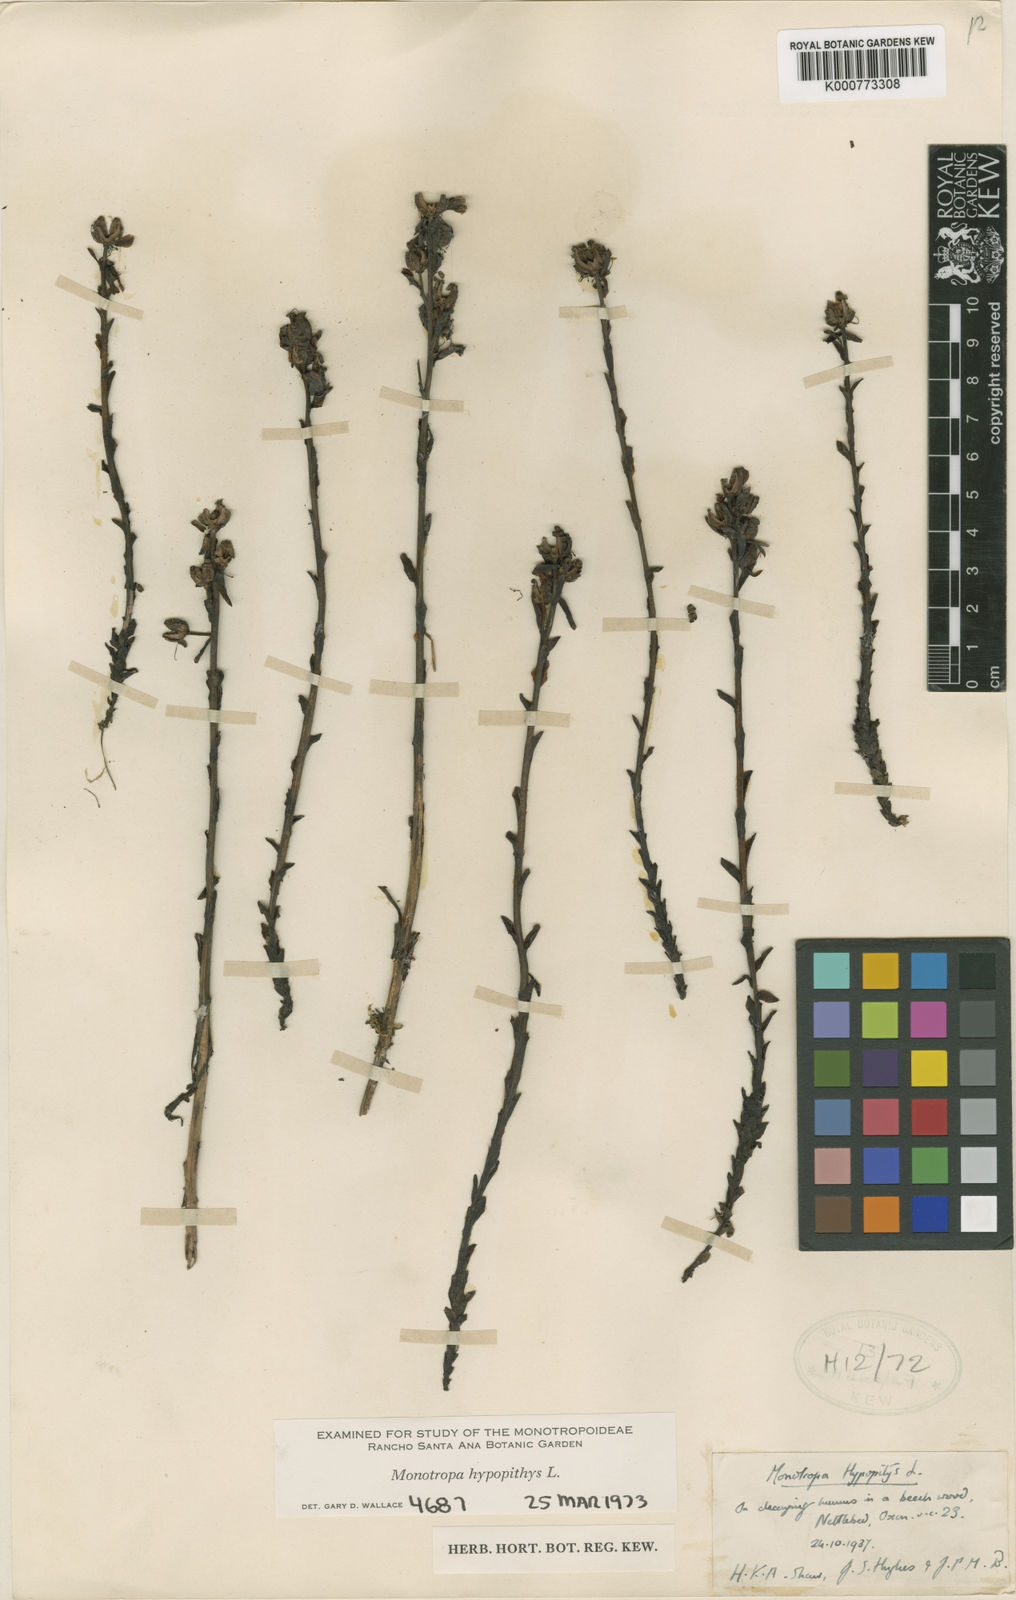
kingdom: Plantae
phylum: Tracheophyta
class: Magnoliopsida
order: Ericales
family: Ericaceae
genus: Monotropa
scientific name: Monotropa
